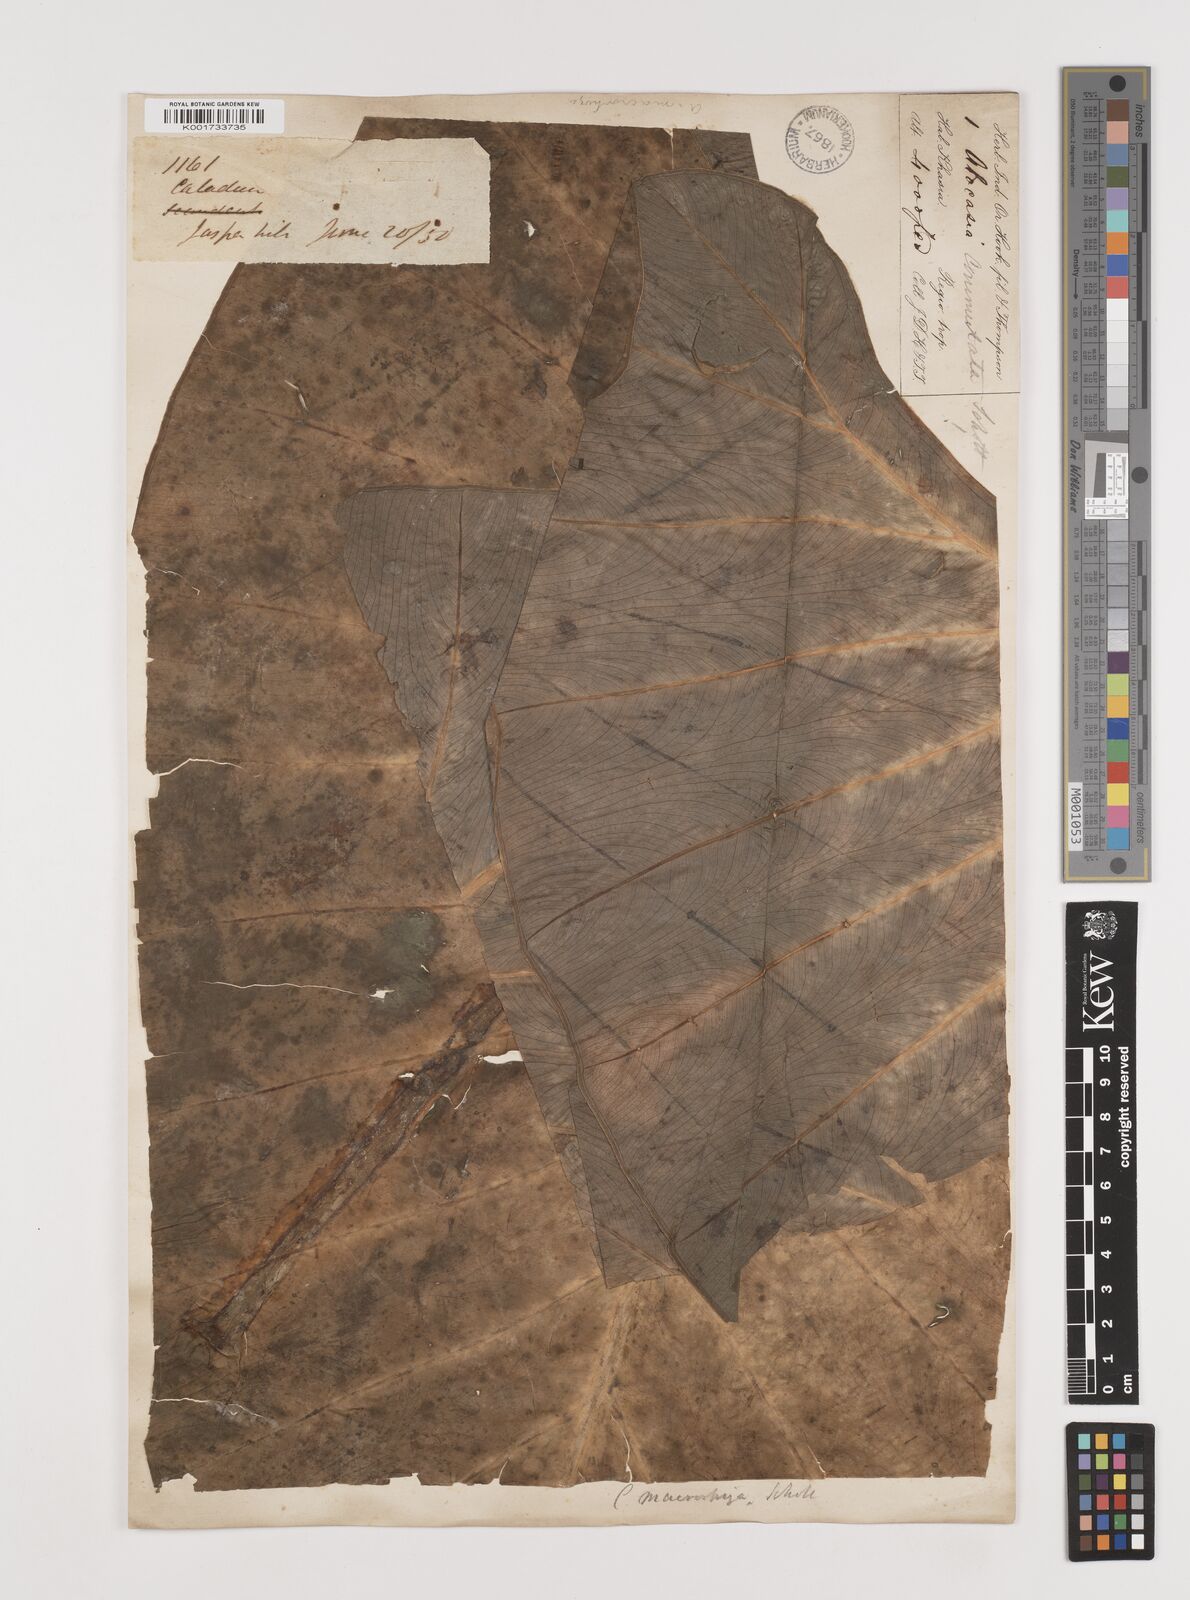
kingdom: Plantae
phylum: Tracheophyta
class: Liliopsida
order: Alismatales
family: Araceae
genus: Alocasia
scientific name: Alocasia macrorrhizos
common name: Giant taro
